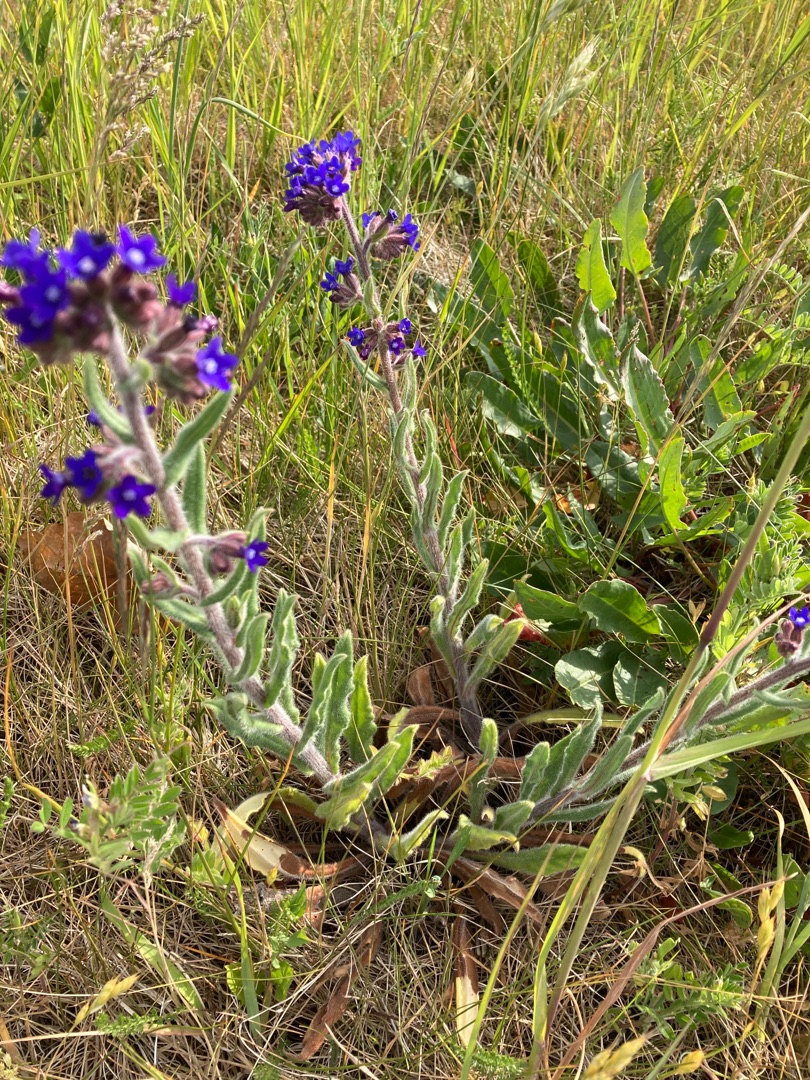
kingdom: Plantae
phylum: Tracheophyta
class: Magnoliopsida
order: Boraginales
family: Boraginaceae
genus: Anchusa
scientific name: Anchusa officinalis
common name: Læge-oksetunge
